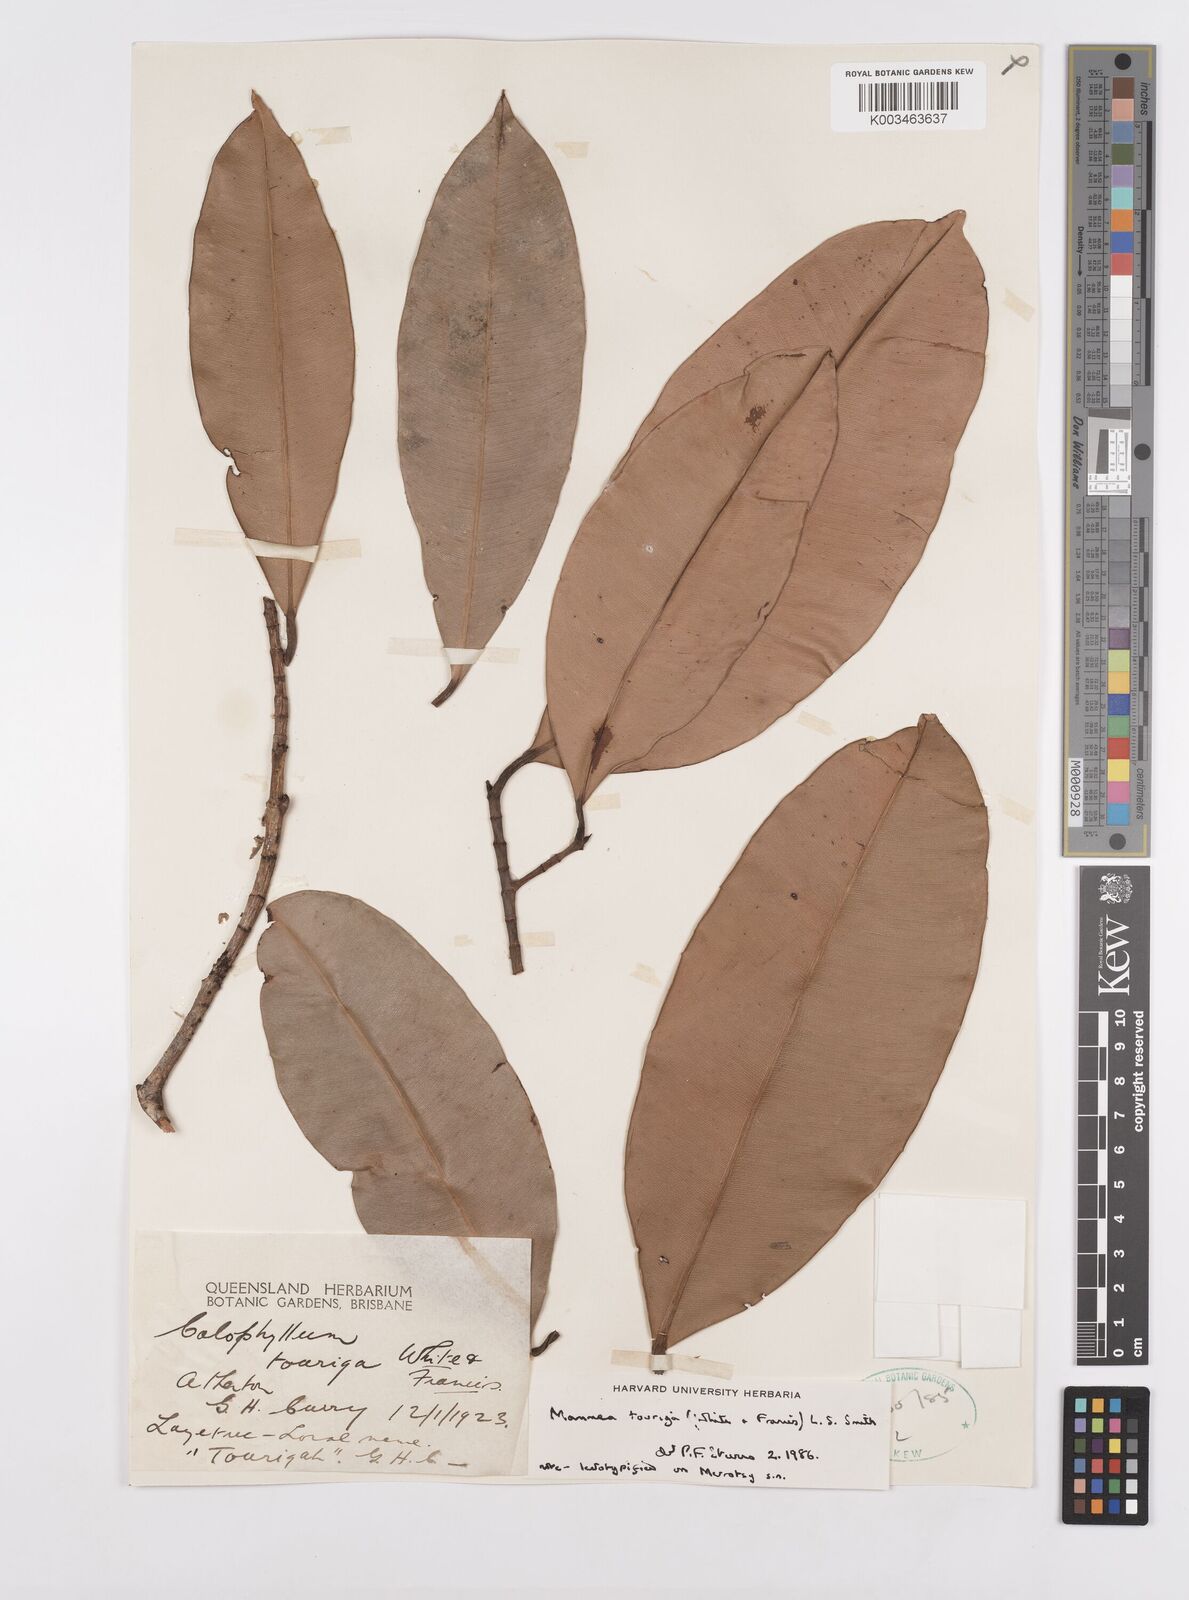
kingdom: Plantae
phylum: Tracheophyta
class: Magnoliopsida
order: Malpighiales
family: Calophyllaceae
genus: Mammea
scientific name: Mammea touriga
